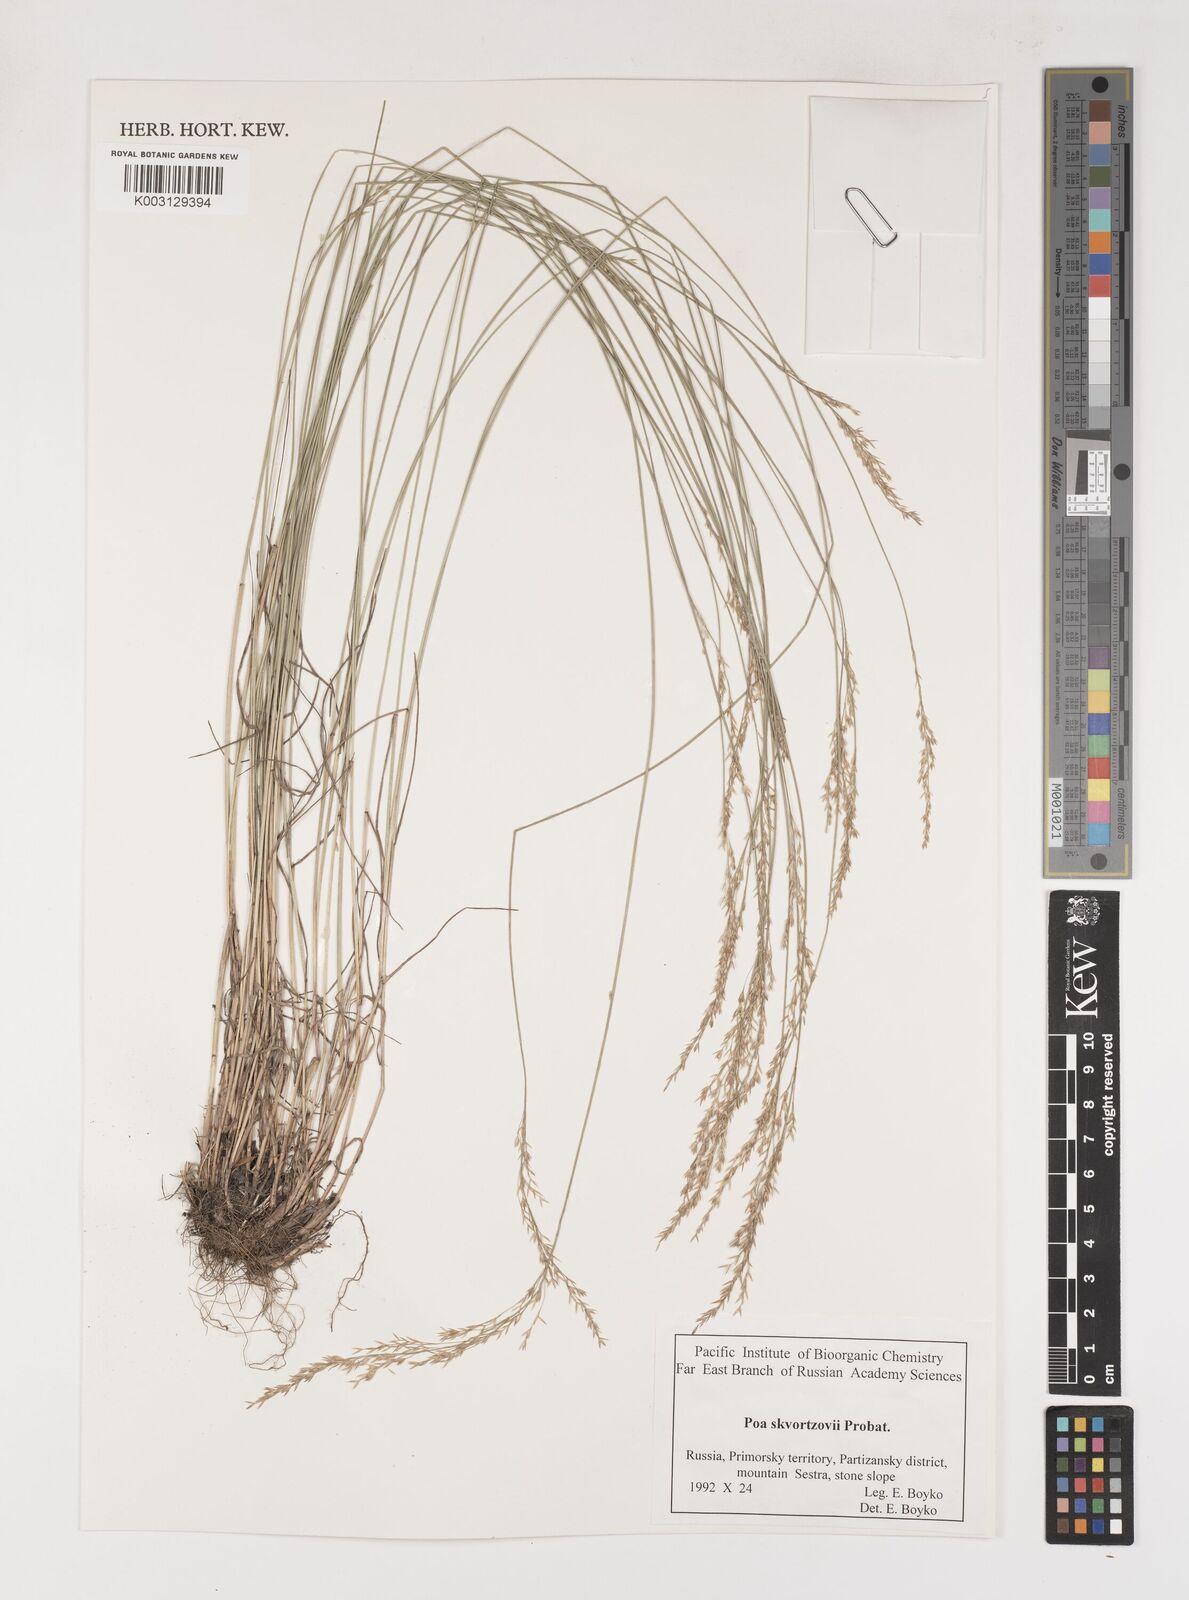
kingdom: Plantae
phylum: Tracheophyta
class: Liliopsida
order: Poales
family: Poaceae
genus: Poa
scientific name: Poa alta
